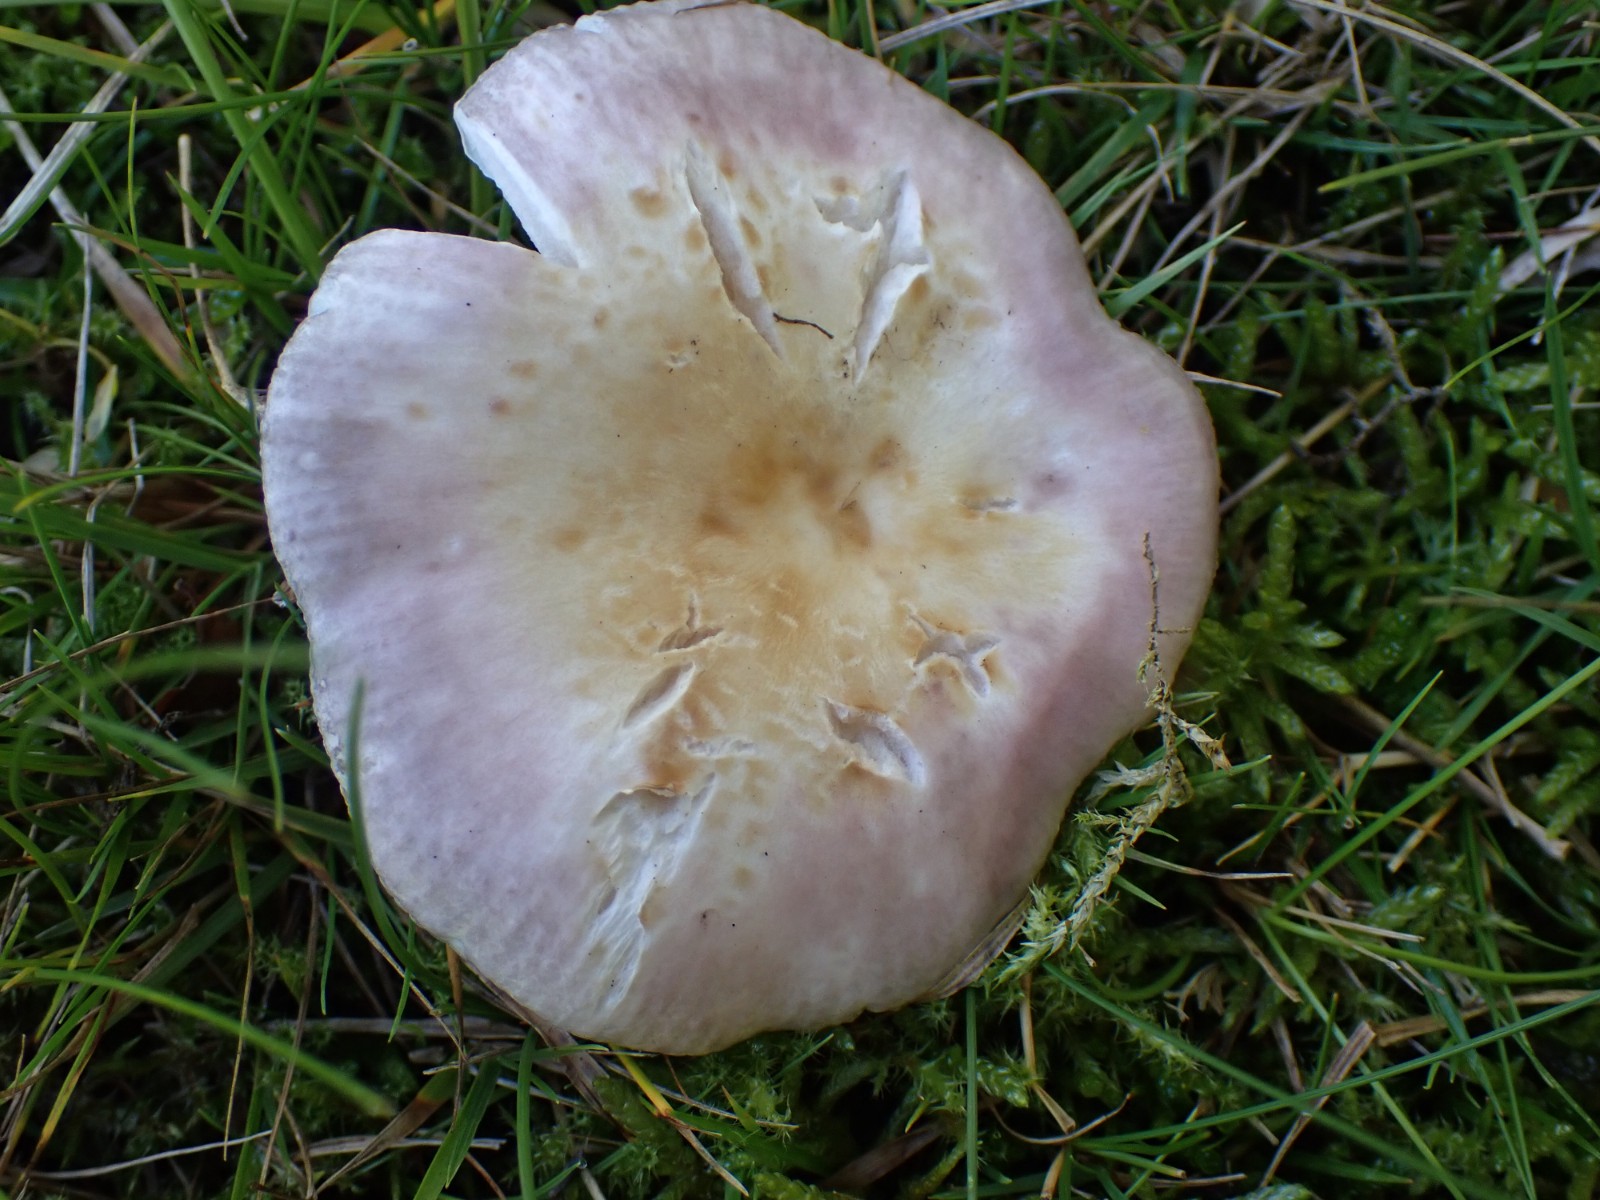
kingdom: Fungi
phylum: Basidiomycota
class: Agaricomycetes
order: Russulales
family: Russulaceae
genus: Russula
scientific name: Russula
